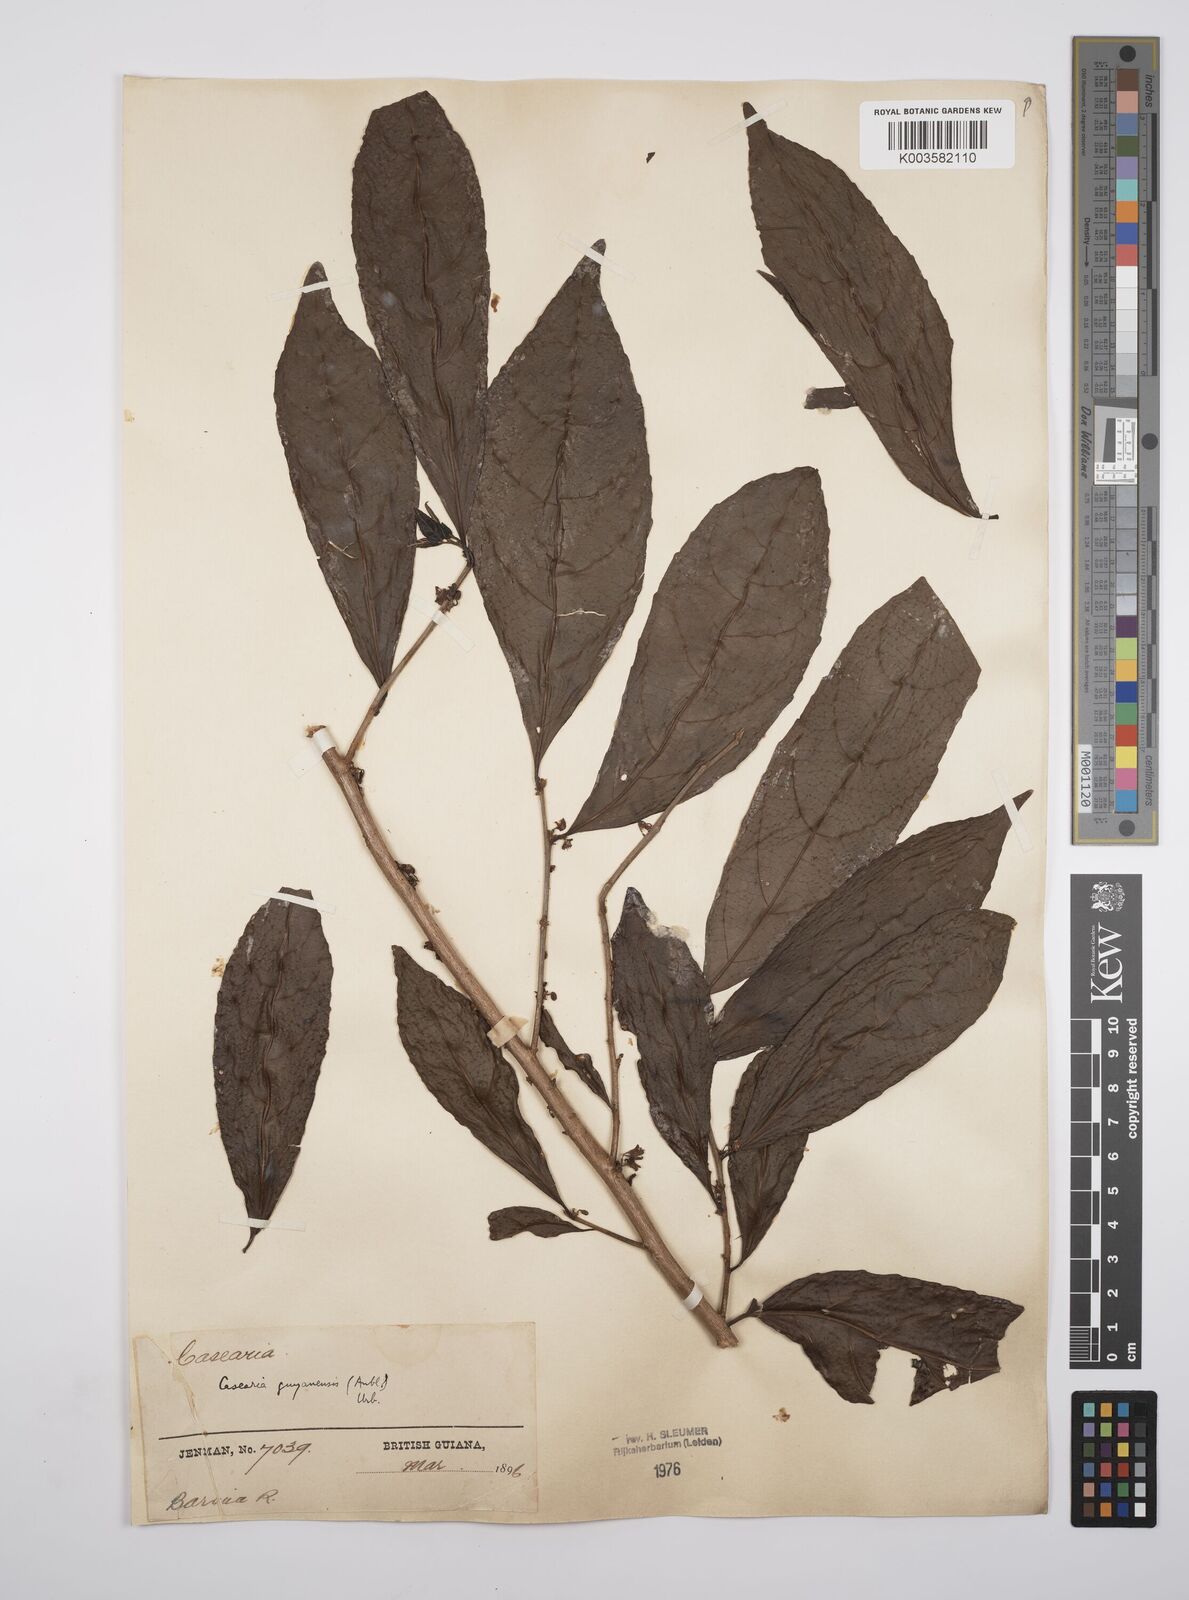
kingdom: Plantae
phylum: Tracheophyta
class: Magnoliopsida
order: Malpighiales
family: Salicaceae
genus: Casearia
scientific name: Casearia guianensis
